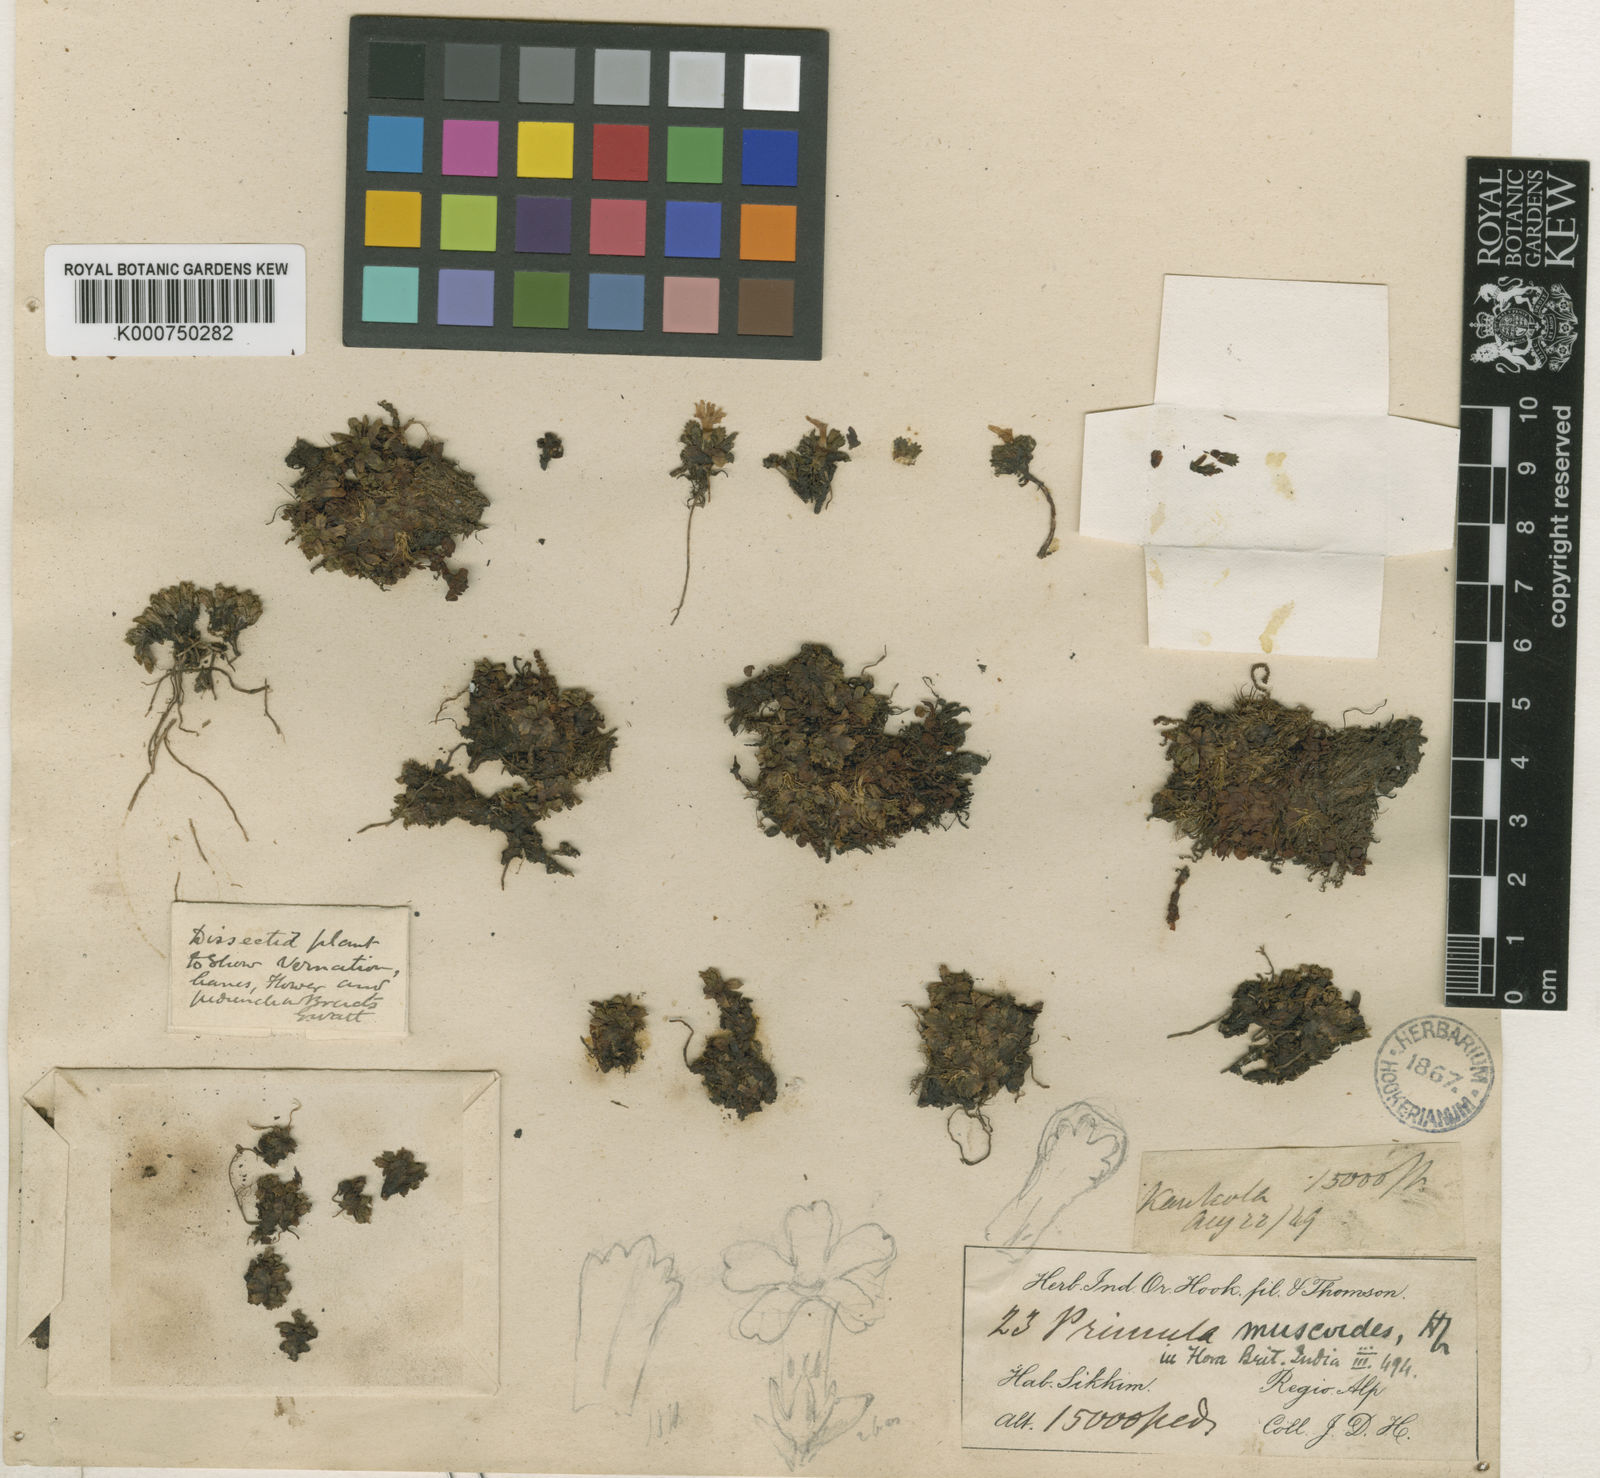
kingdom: Plantae
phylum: Tracheophyta
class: Magnoliopsida
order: Ericales
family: Primulaceae
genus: Primula
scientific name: Primula muscoides
